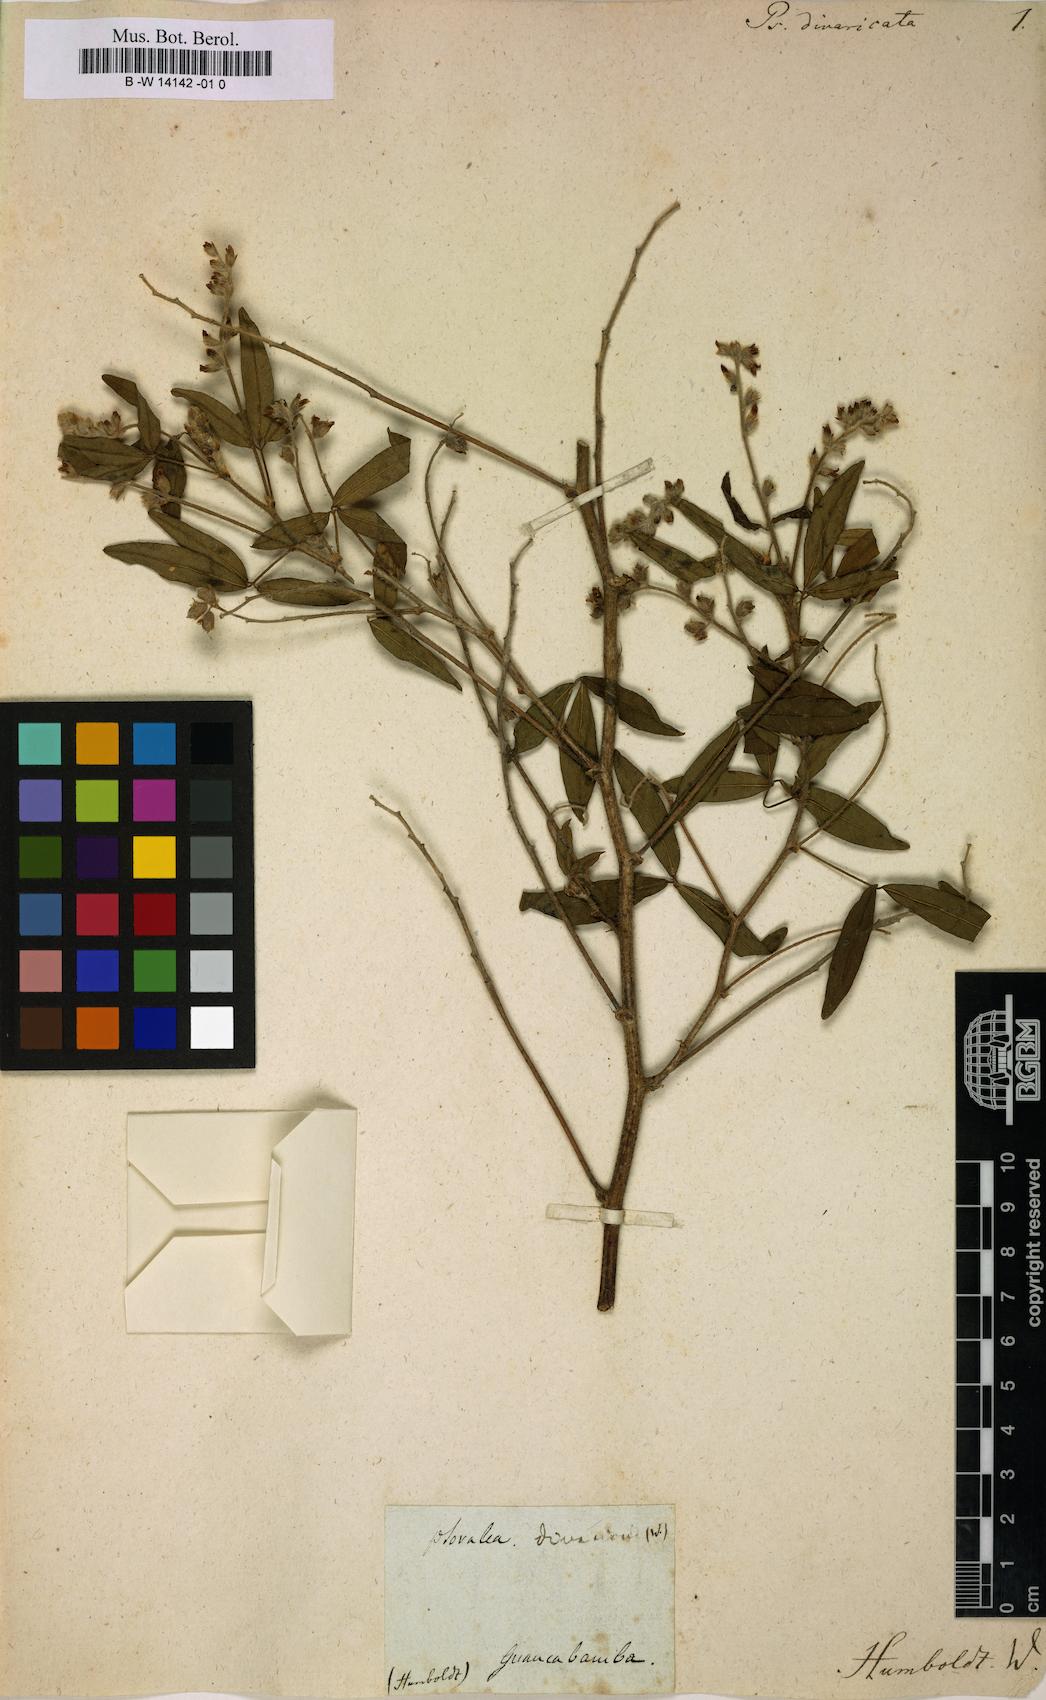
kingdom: Plantae
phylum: Tracheophyta
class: Magnoliopsida
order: Fabales
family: Fabaceae
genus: Psoralea
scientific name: Psoralea Otholobium mexicanum
